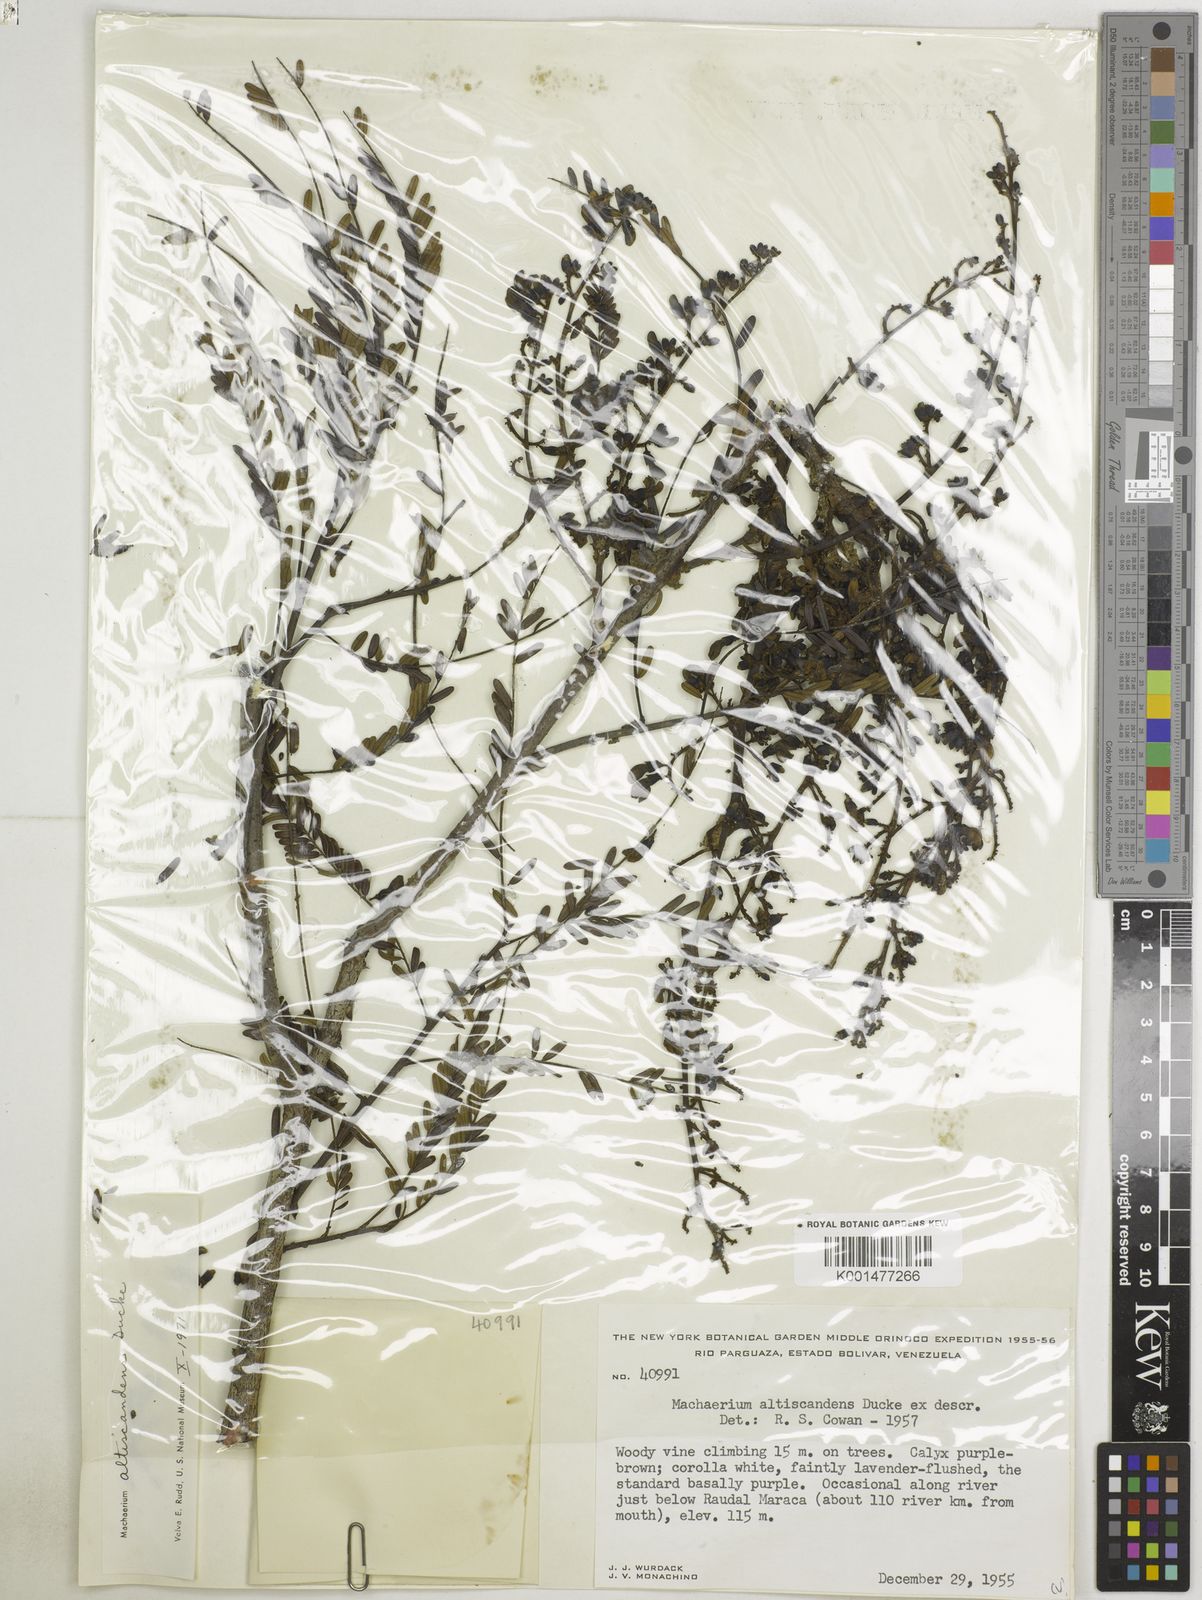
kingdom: Plantae
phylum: Tracheophyta
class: Magnoliopsida
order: Fabales
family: Fabaceae
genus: Machaerium
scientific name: Machaerium altiscandens
